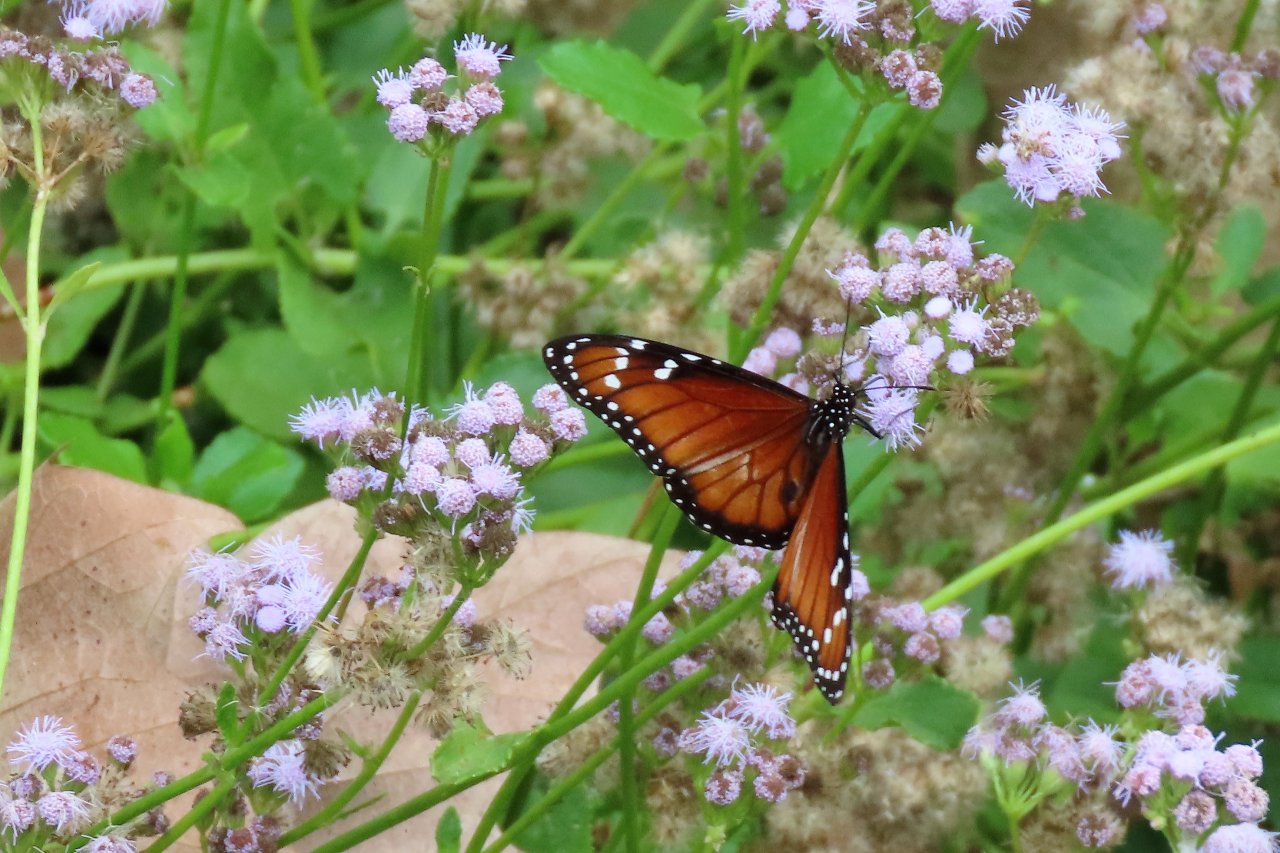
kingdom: Animalia
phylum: Arthropoda
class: Insecta
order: Lepidoptera
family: Nymphalidae
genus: Danaus
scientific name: Danaus eresimus
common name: Soldier
